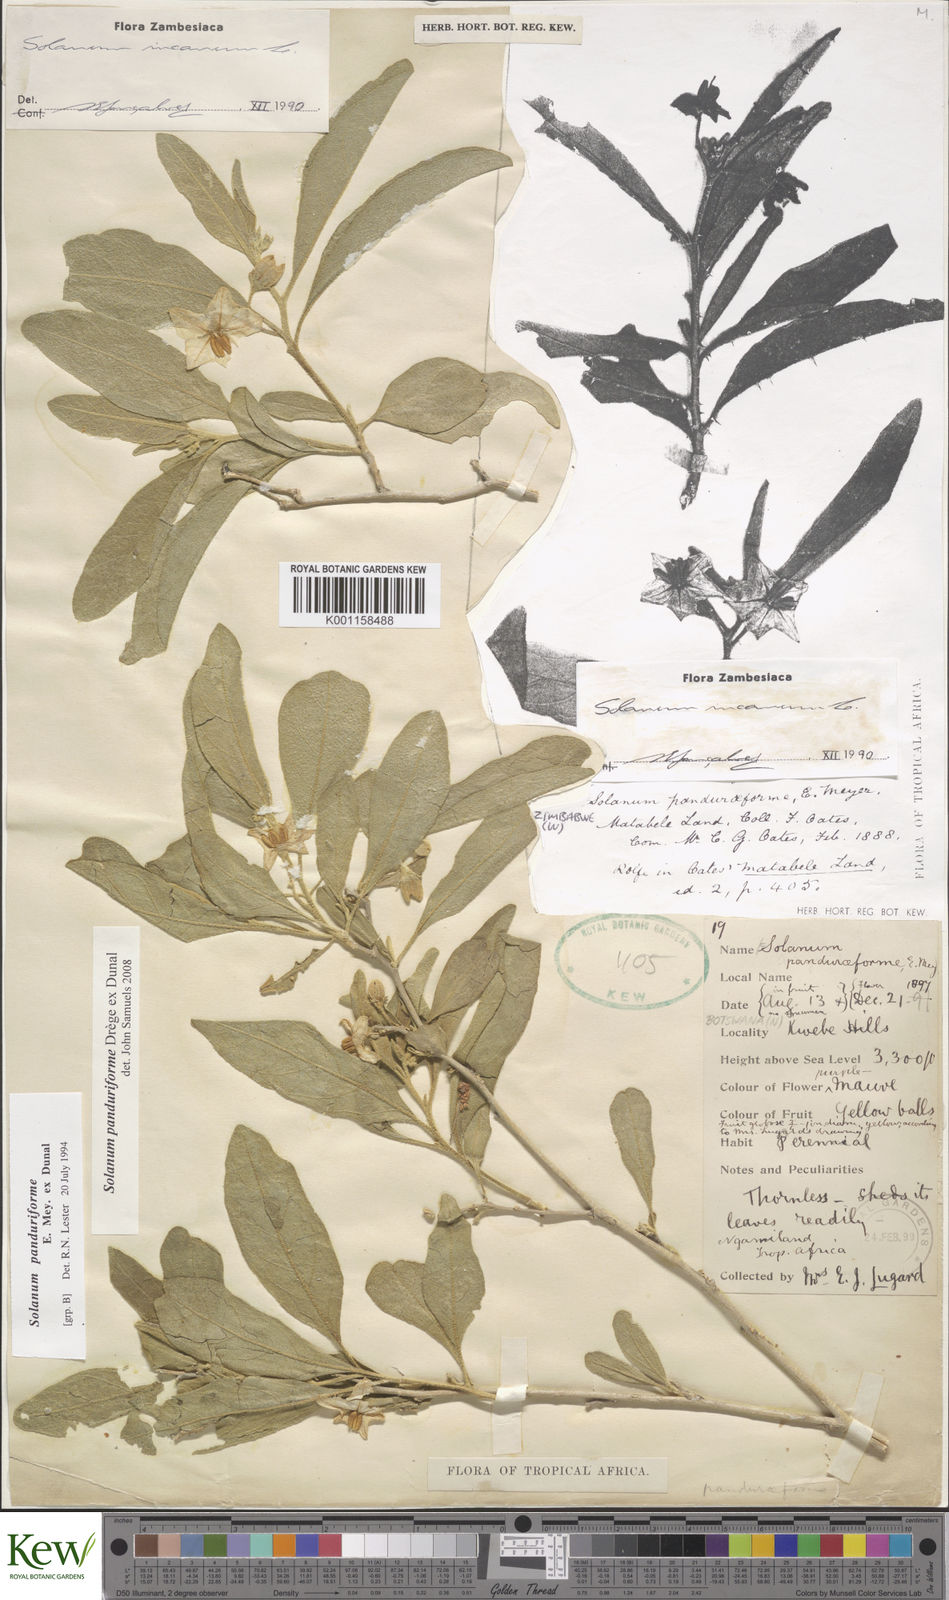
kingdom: Plantae
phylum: Tracheophyta
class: Magnoliopsida
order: Solanales
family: Solanaceae
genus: Solanum
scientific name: Solanum campylacanthum
